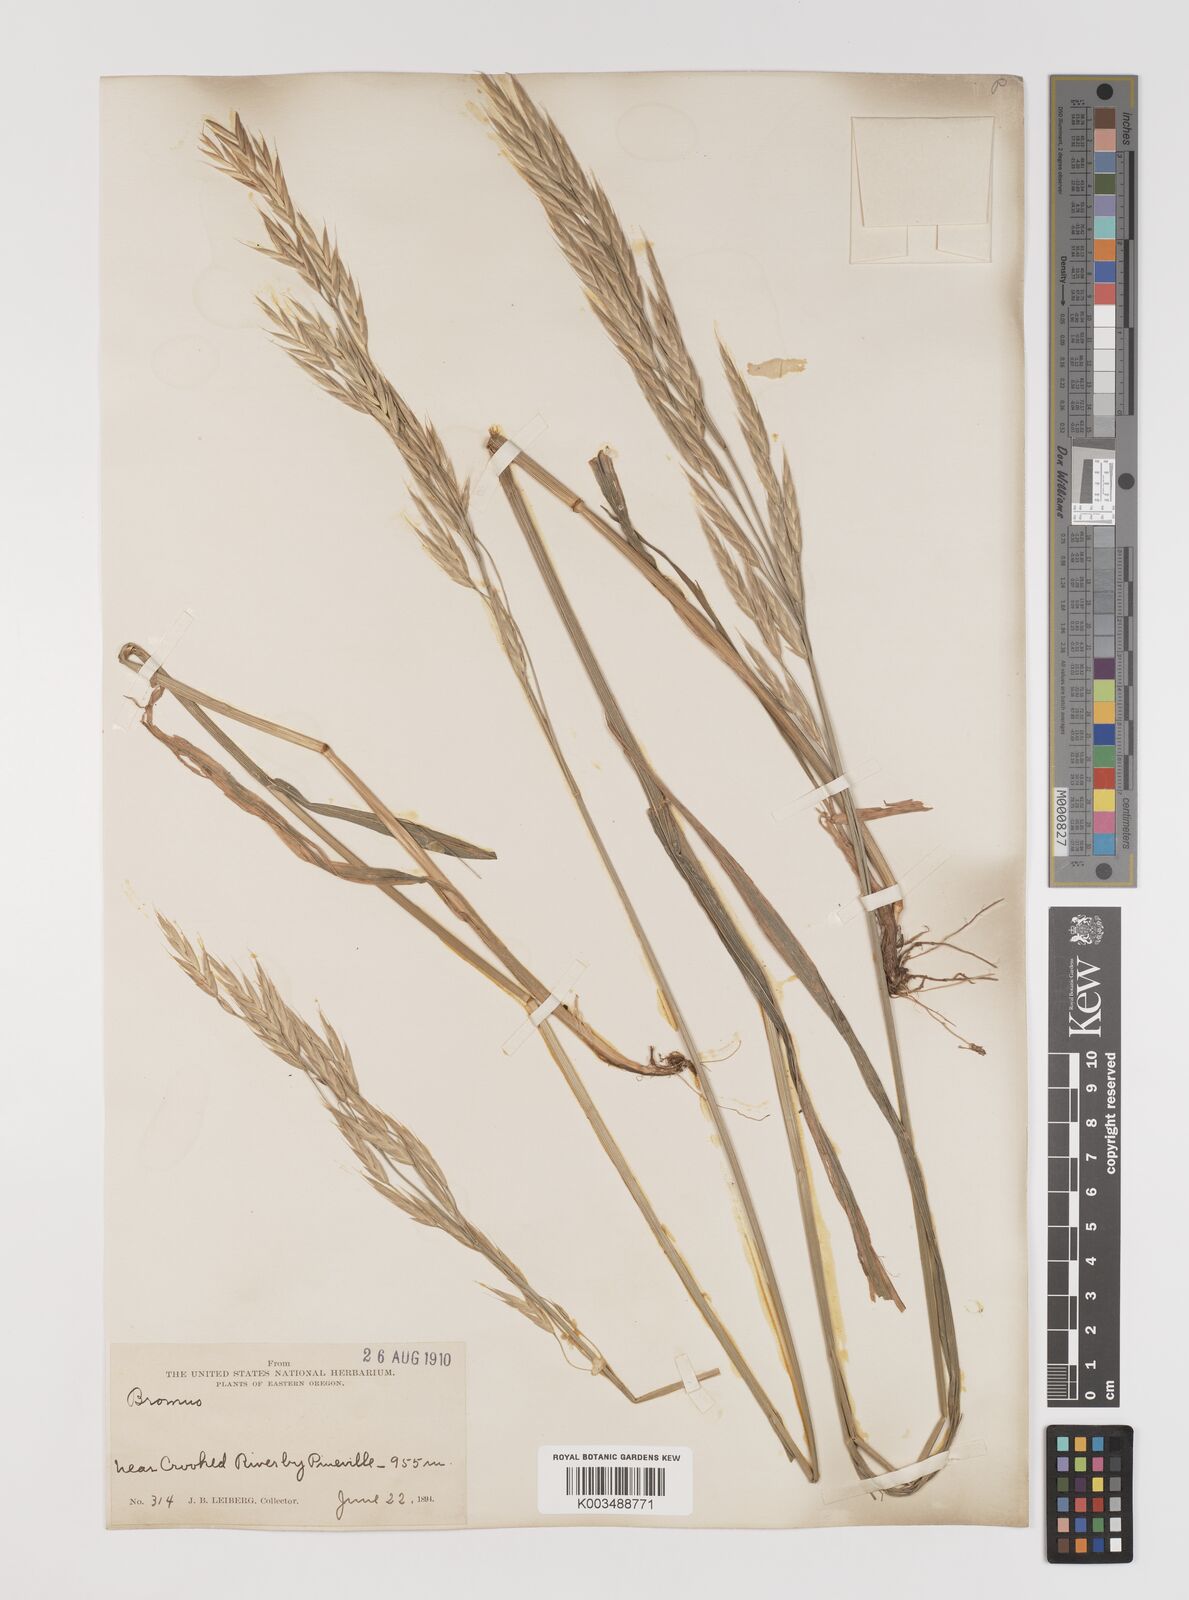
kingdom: Plantae
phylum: Tracheophyta
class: Liliopsida
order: Poales
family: Poaceae
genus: Bromus
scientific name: Bromus
